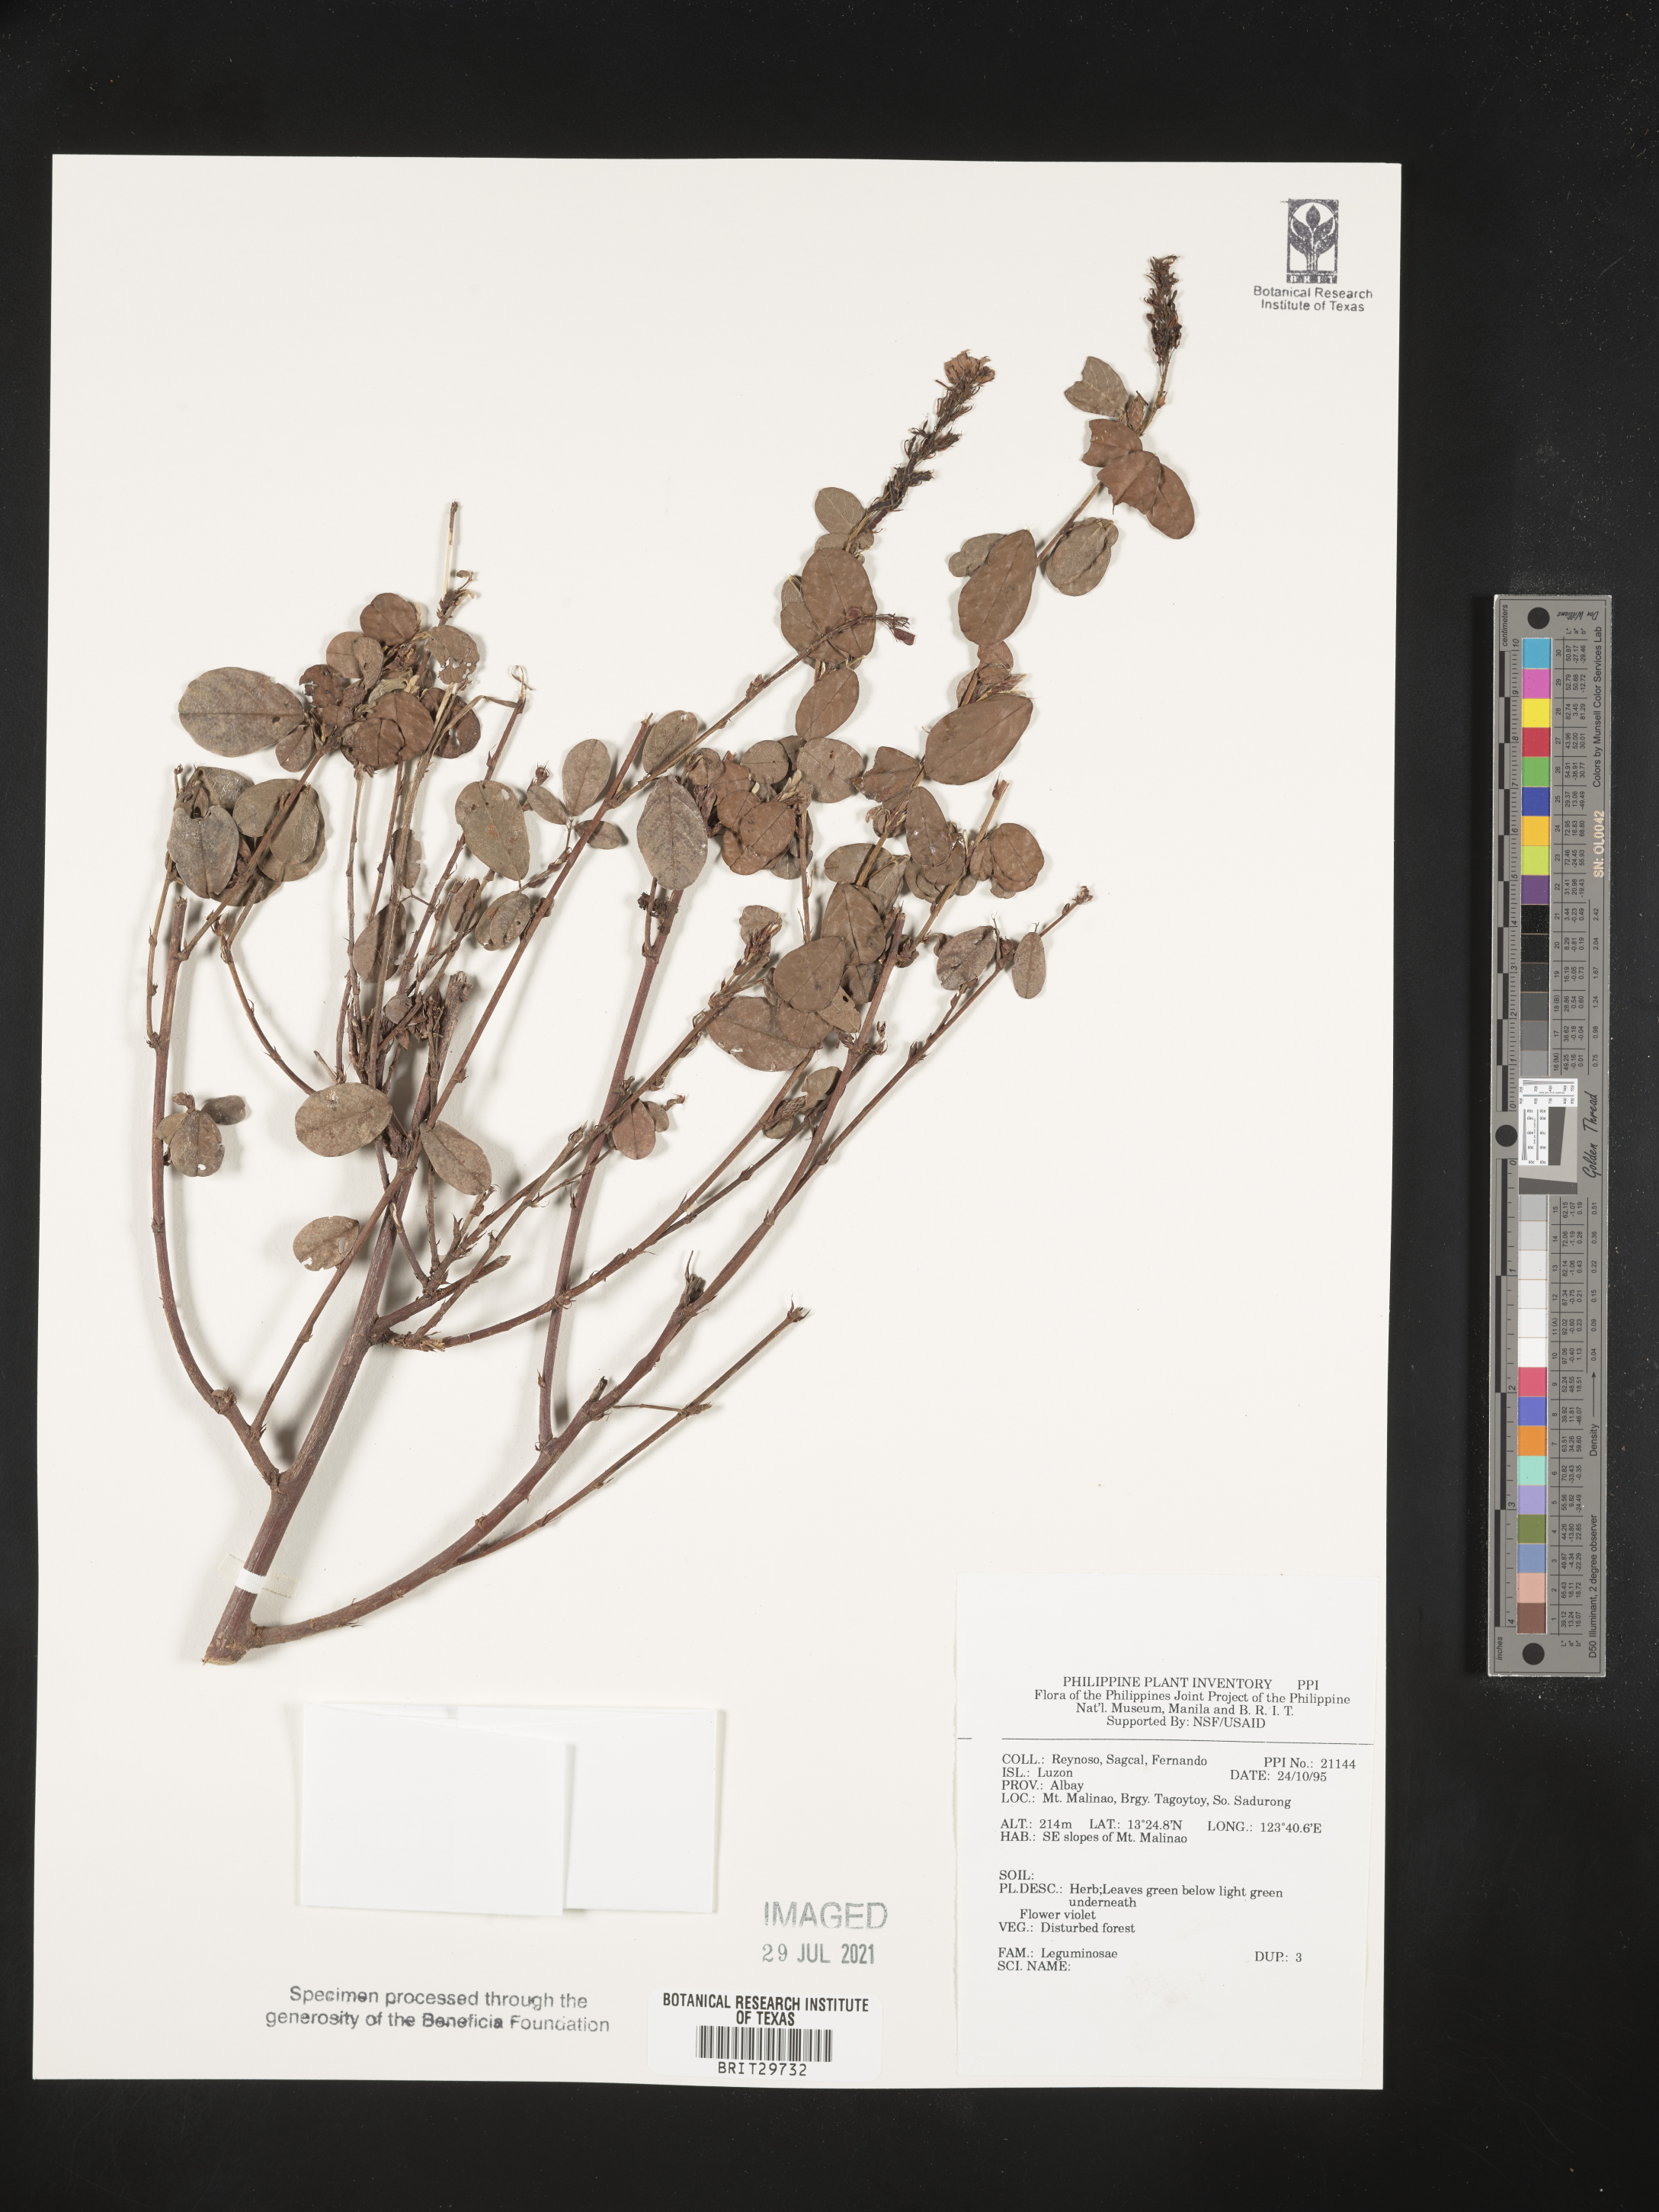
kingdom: Plantae
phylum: Tracheophyta
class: Magnoliopsida
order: Fabales
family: Fabaceae
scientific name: Fabaceae
